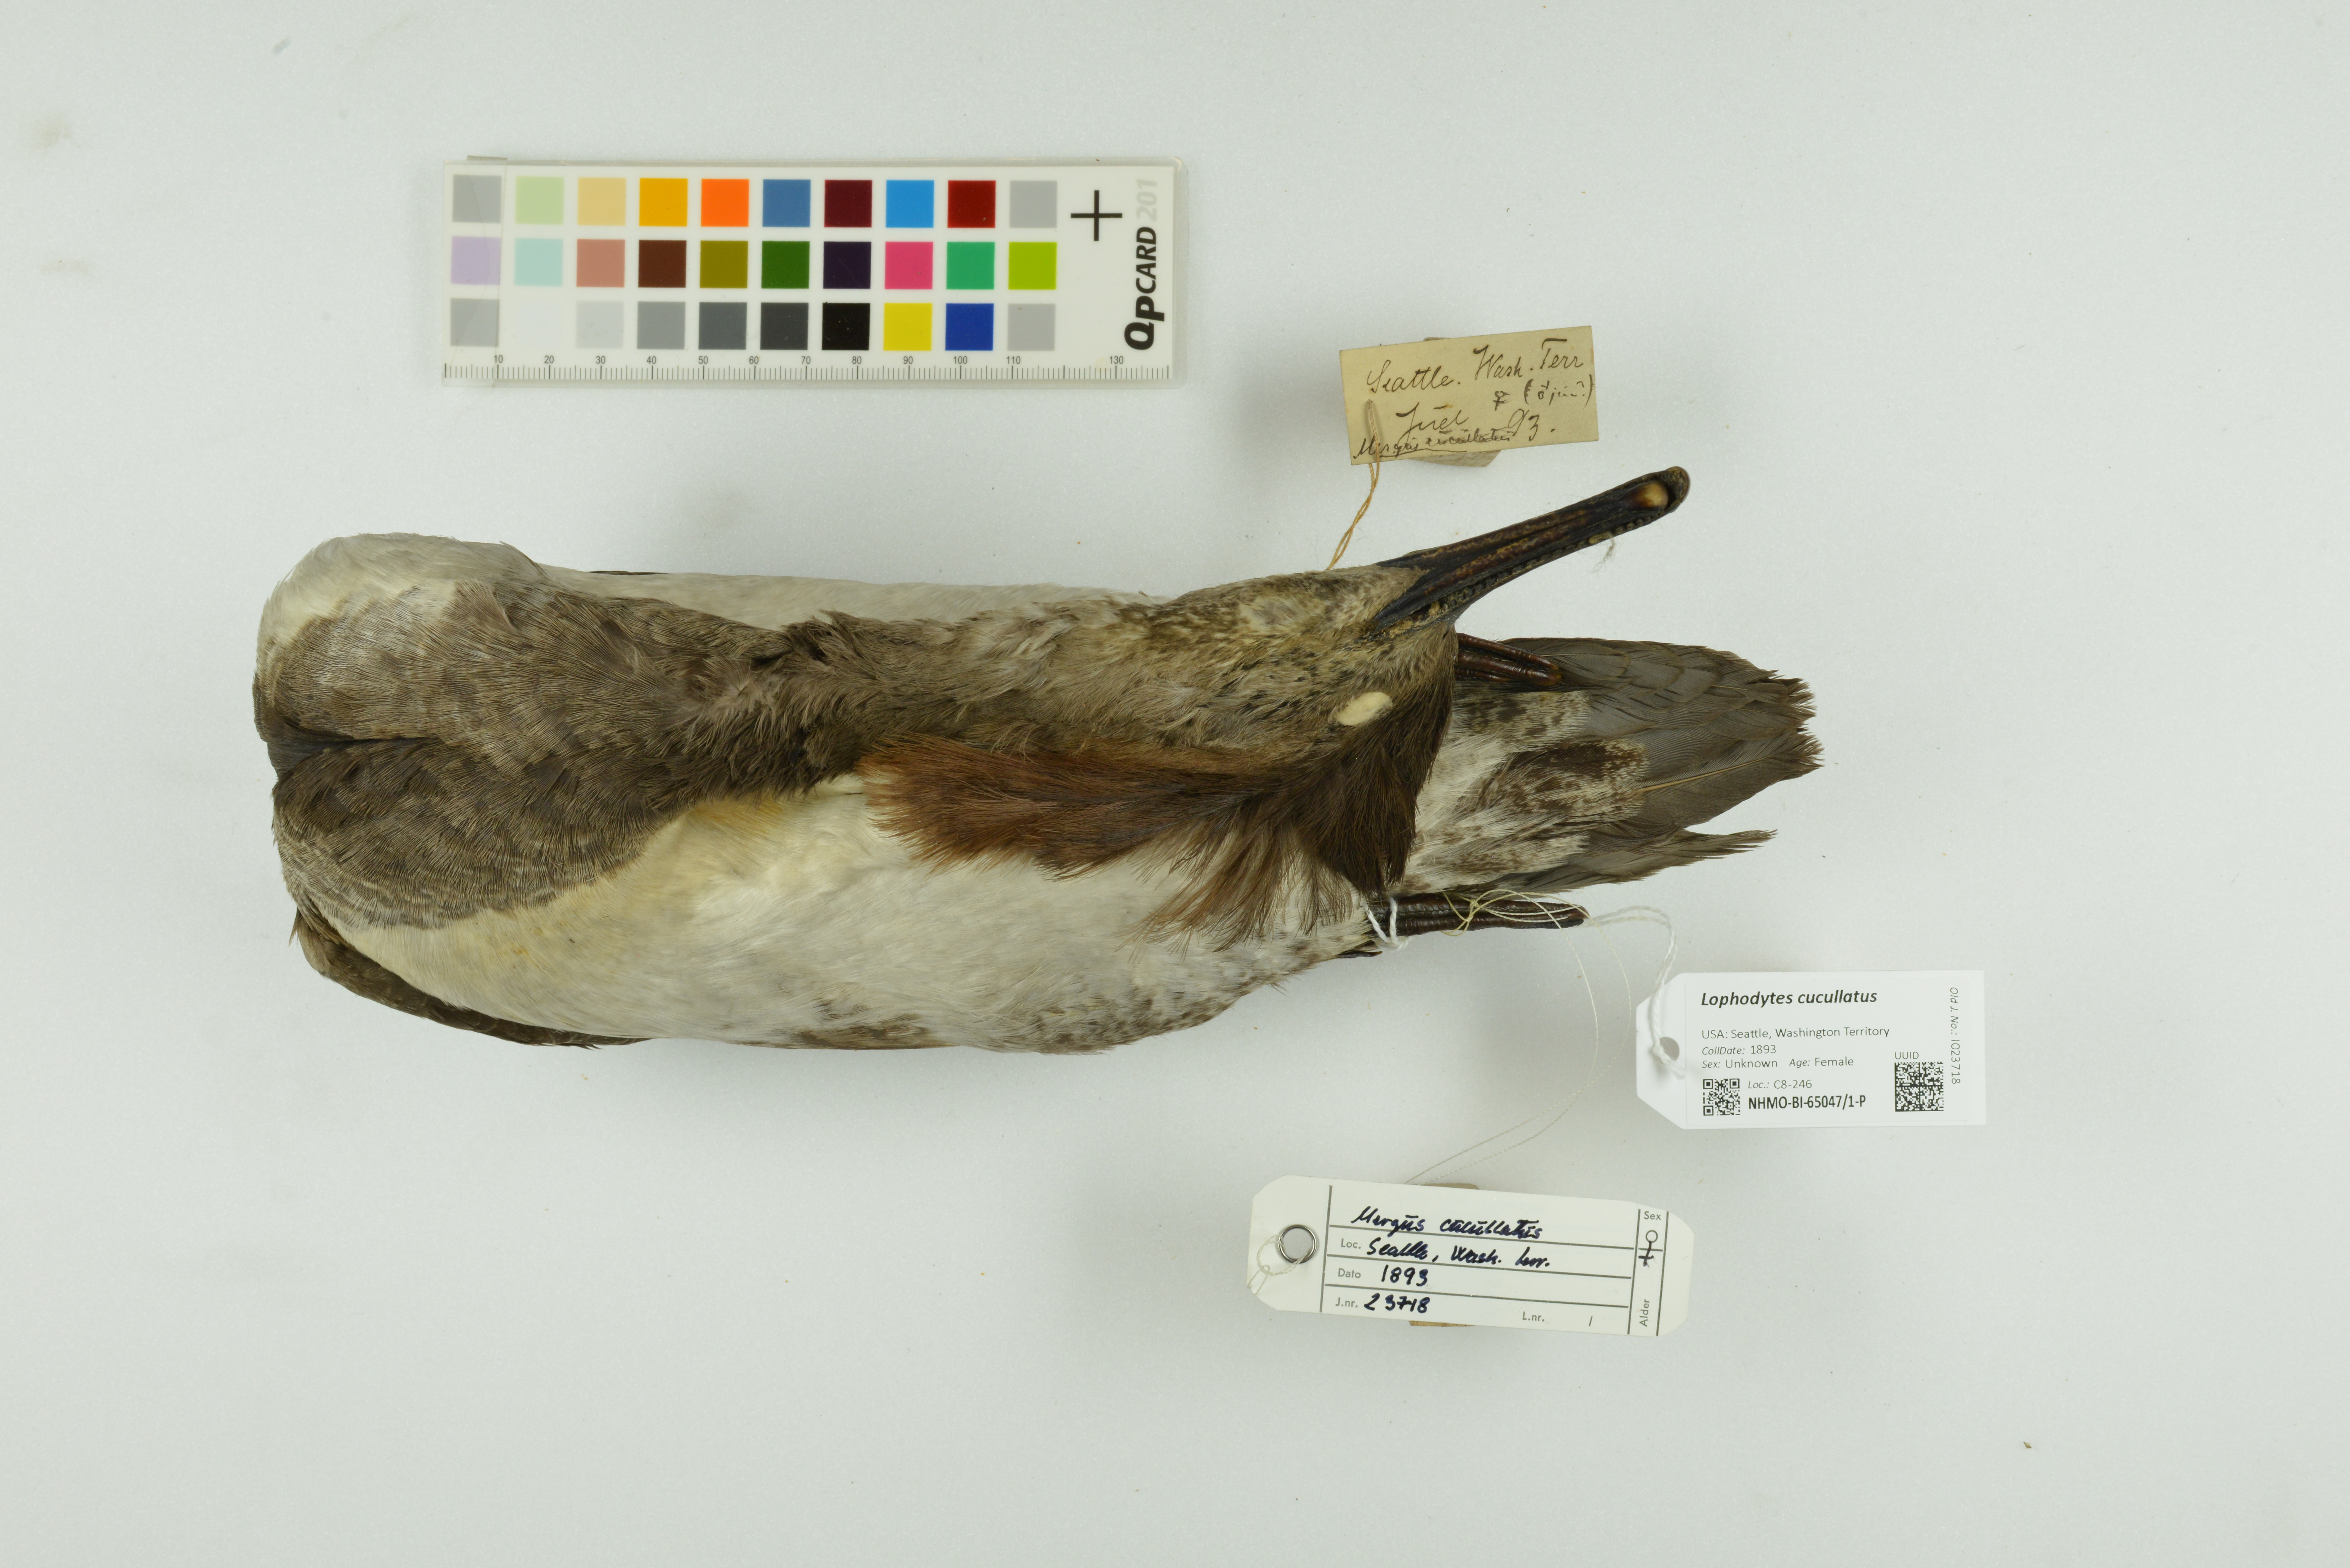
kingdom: Animalia
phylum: Chordata
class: Aves
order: Anseriformes
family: Anatidae
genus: Lophodytes
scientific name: Lophodytes cucullatus
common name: Hooded merganser
